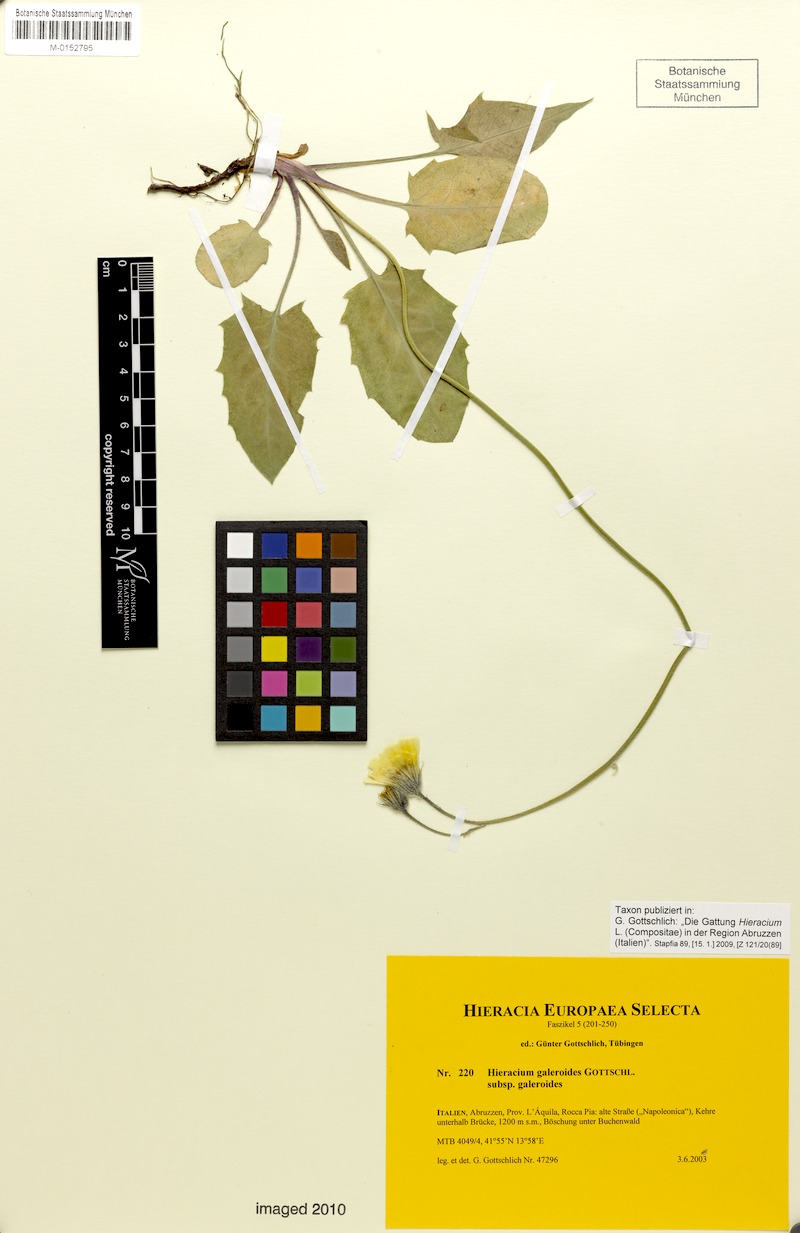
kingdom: Plantae
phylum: Tracheophyta
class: Magnoliopsida
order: Asterales
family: Asteraceae
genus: Hieracium
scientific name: Hieracium galeroides
